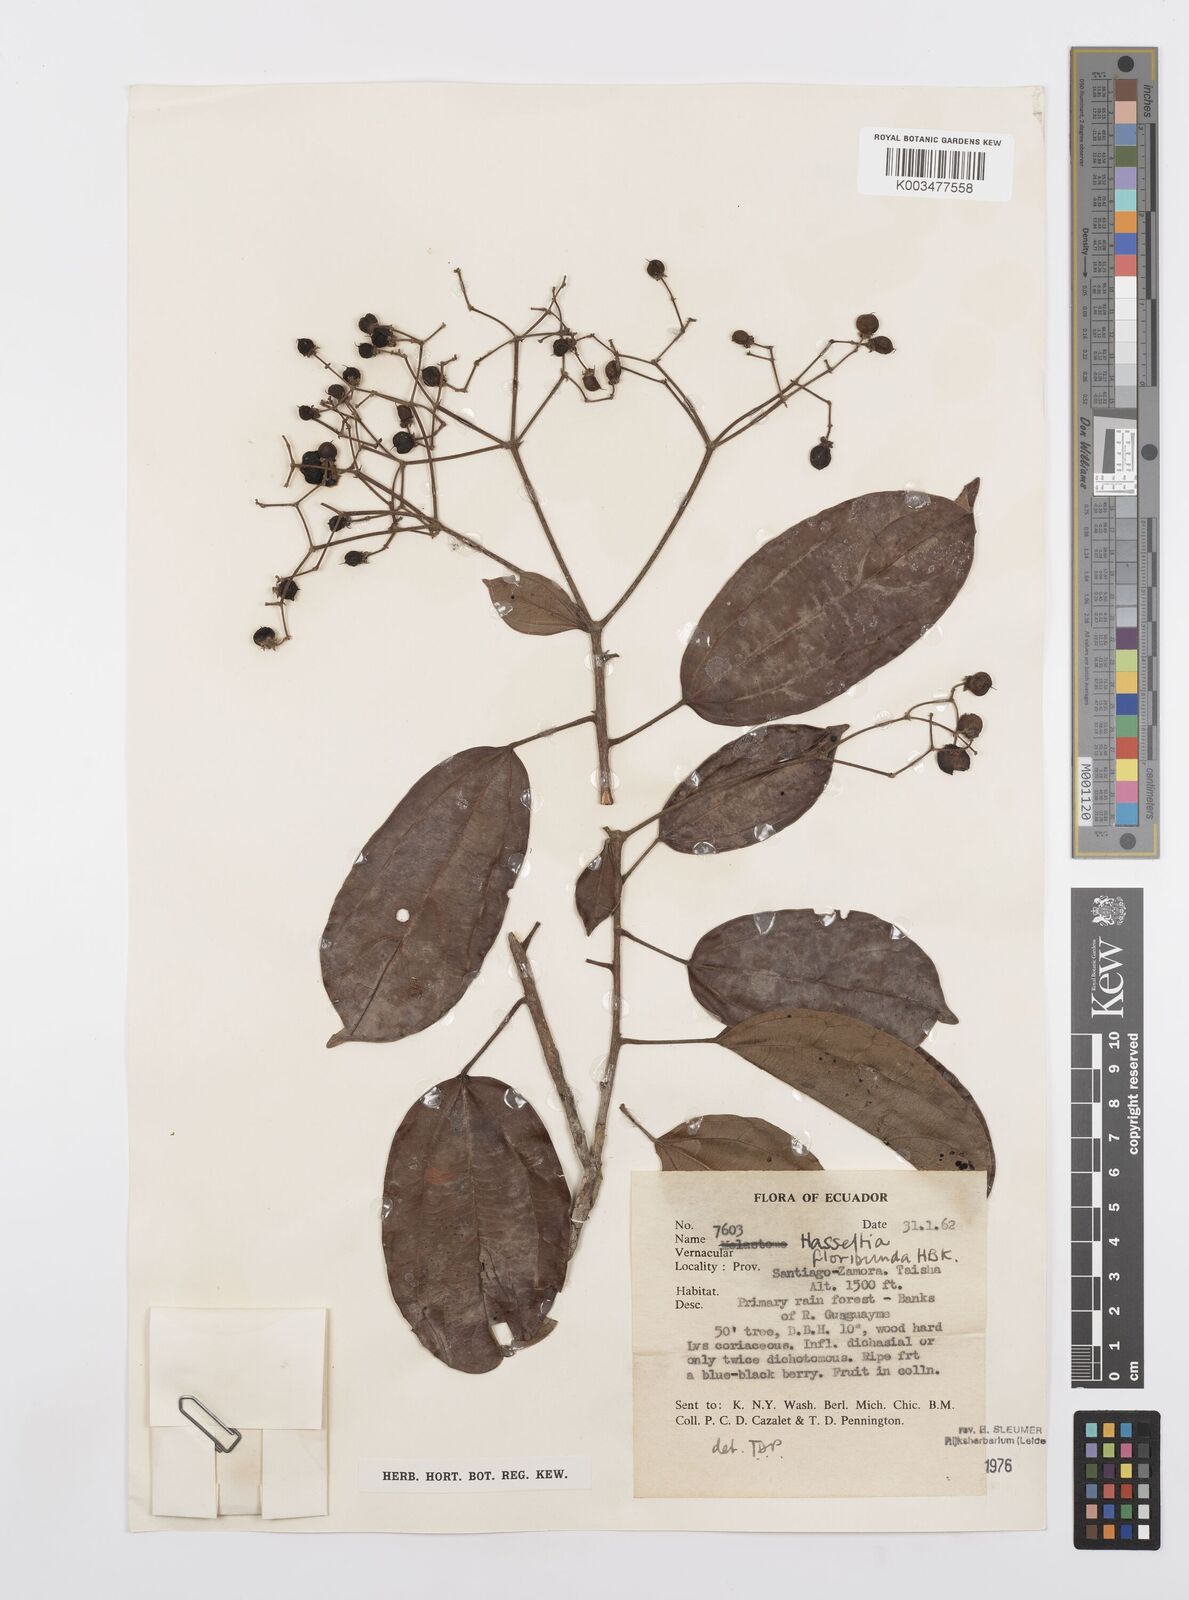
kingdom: Plantae
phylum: Tracheophyta
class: Magnoliopsida
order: Malpighiales
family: Salicaceae
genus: Hasseltia
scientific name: Hasseltia floribunda
